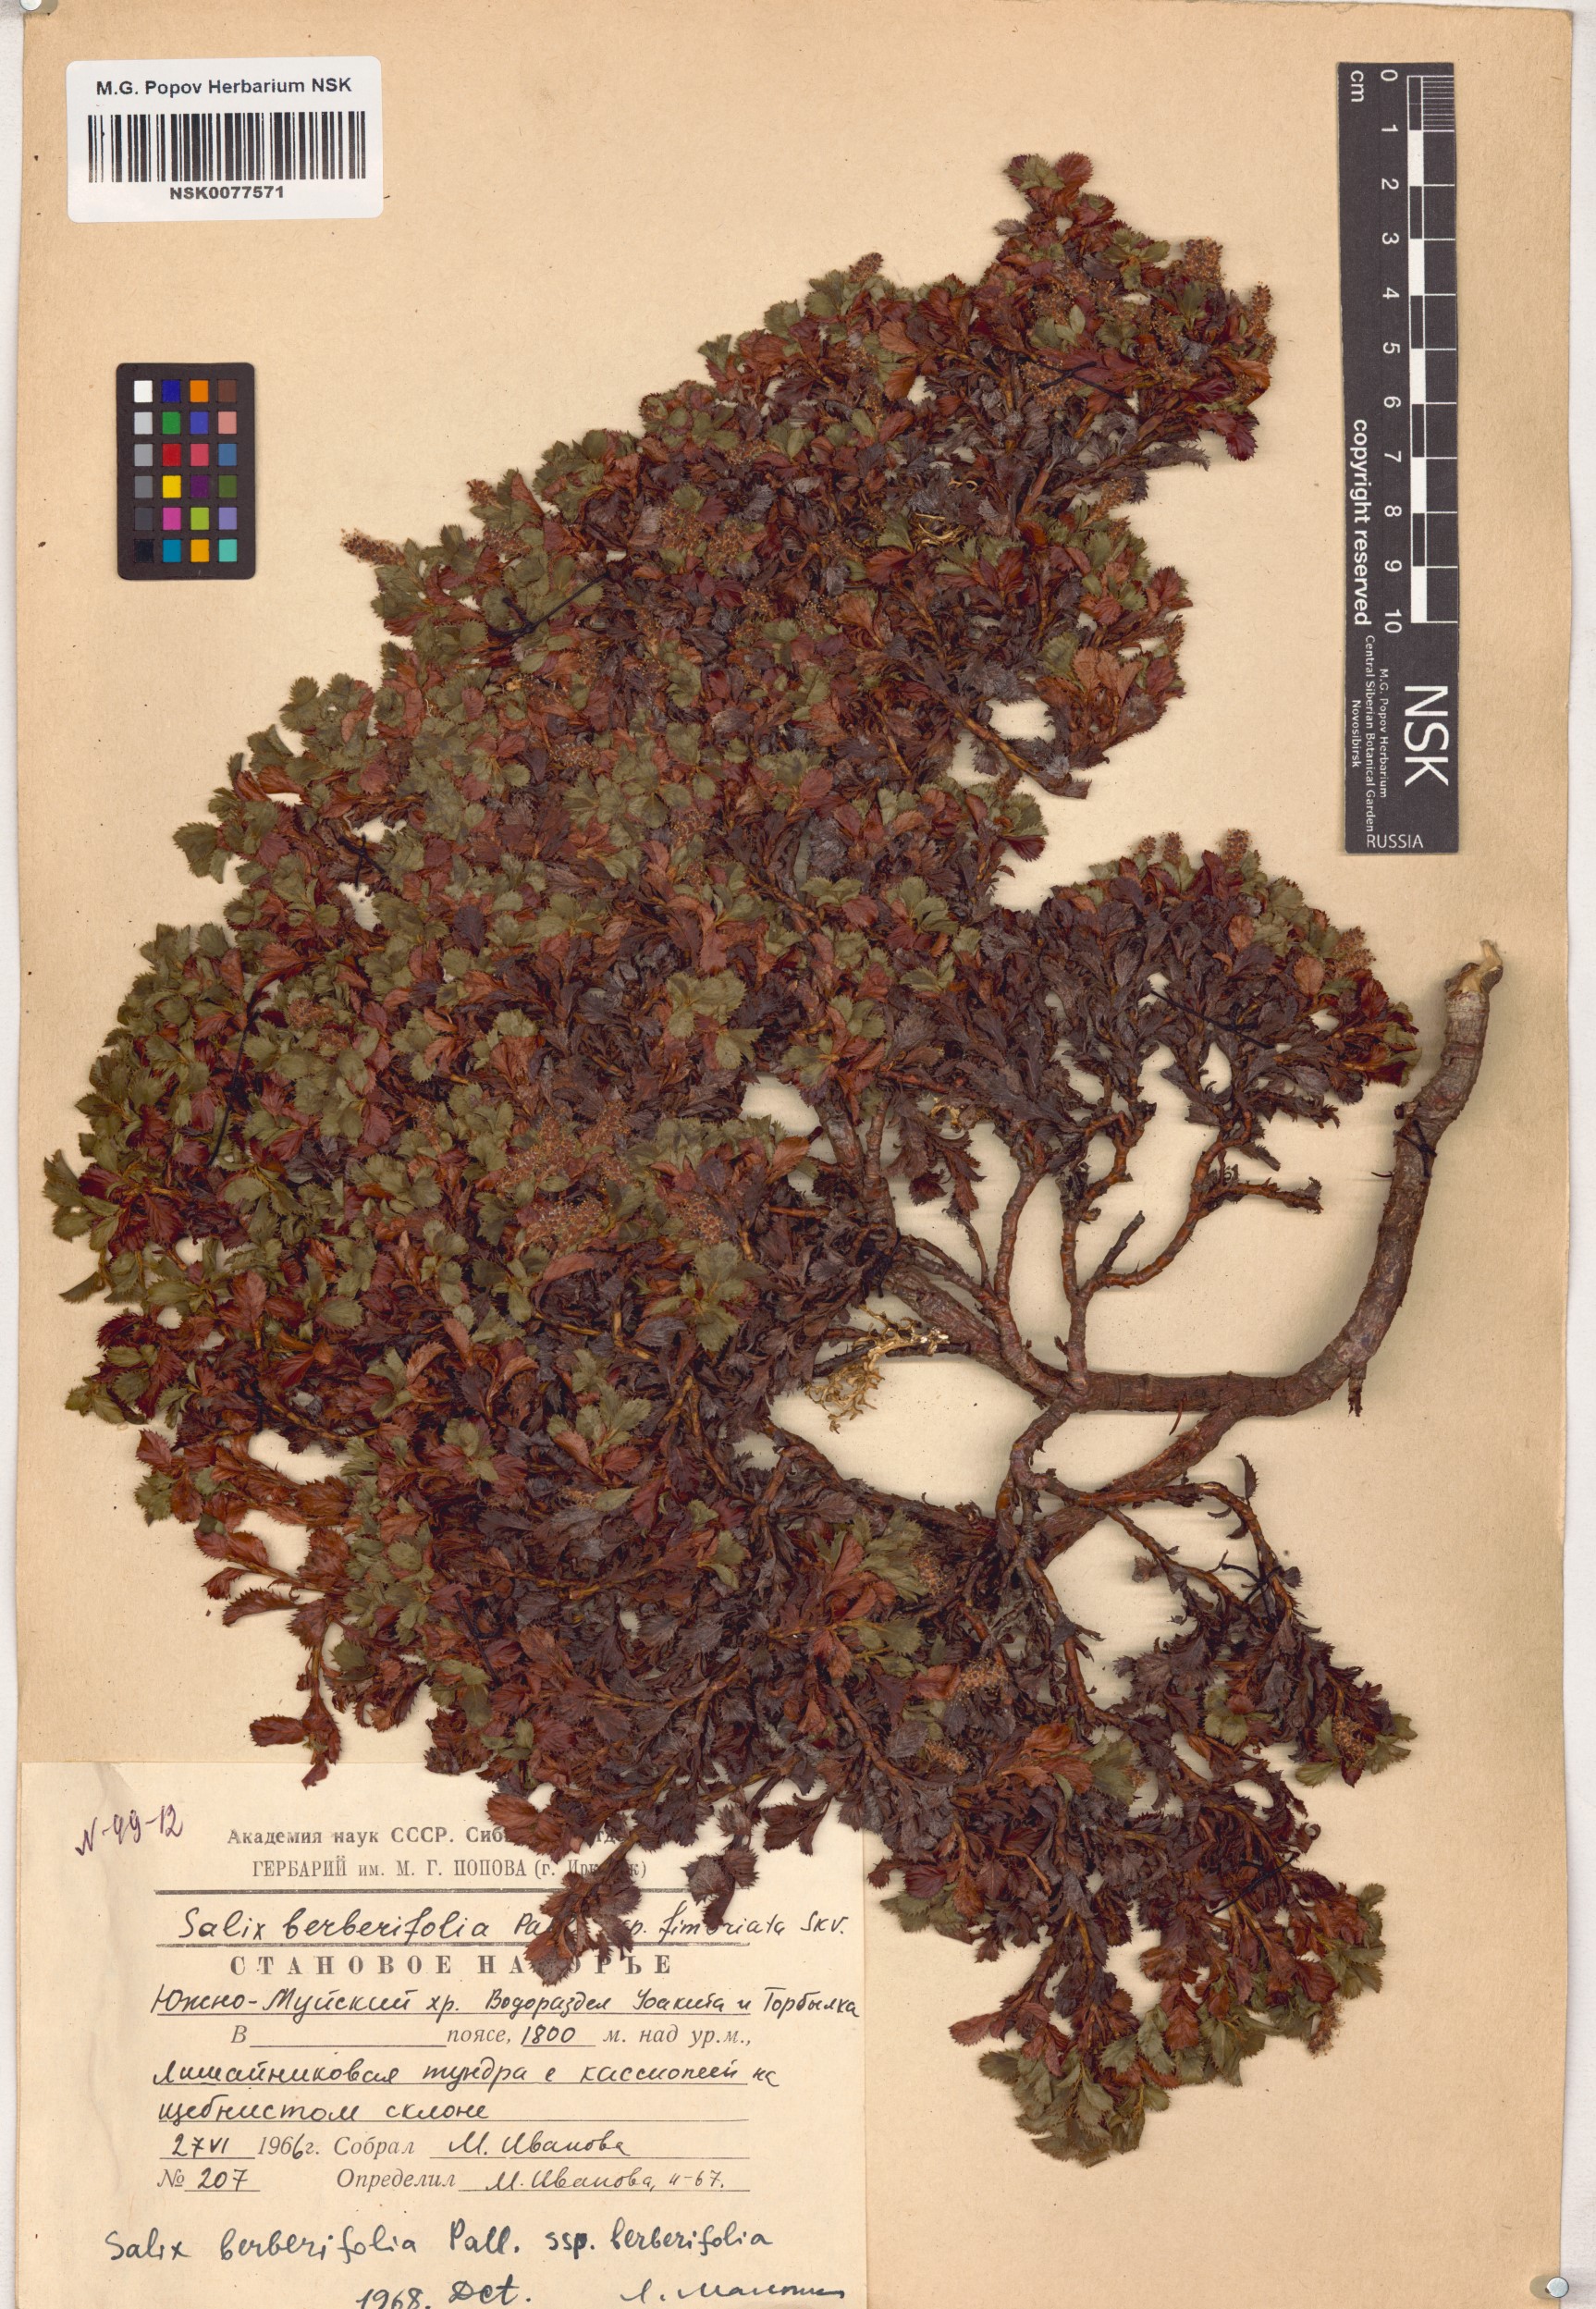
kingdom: Plantae
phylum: Tracheophyta
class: Magnoliopsida
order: Malpighiales
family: Salicaceae
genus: Salix
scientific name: Salix berberifolia
